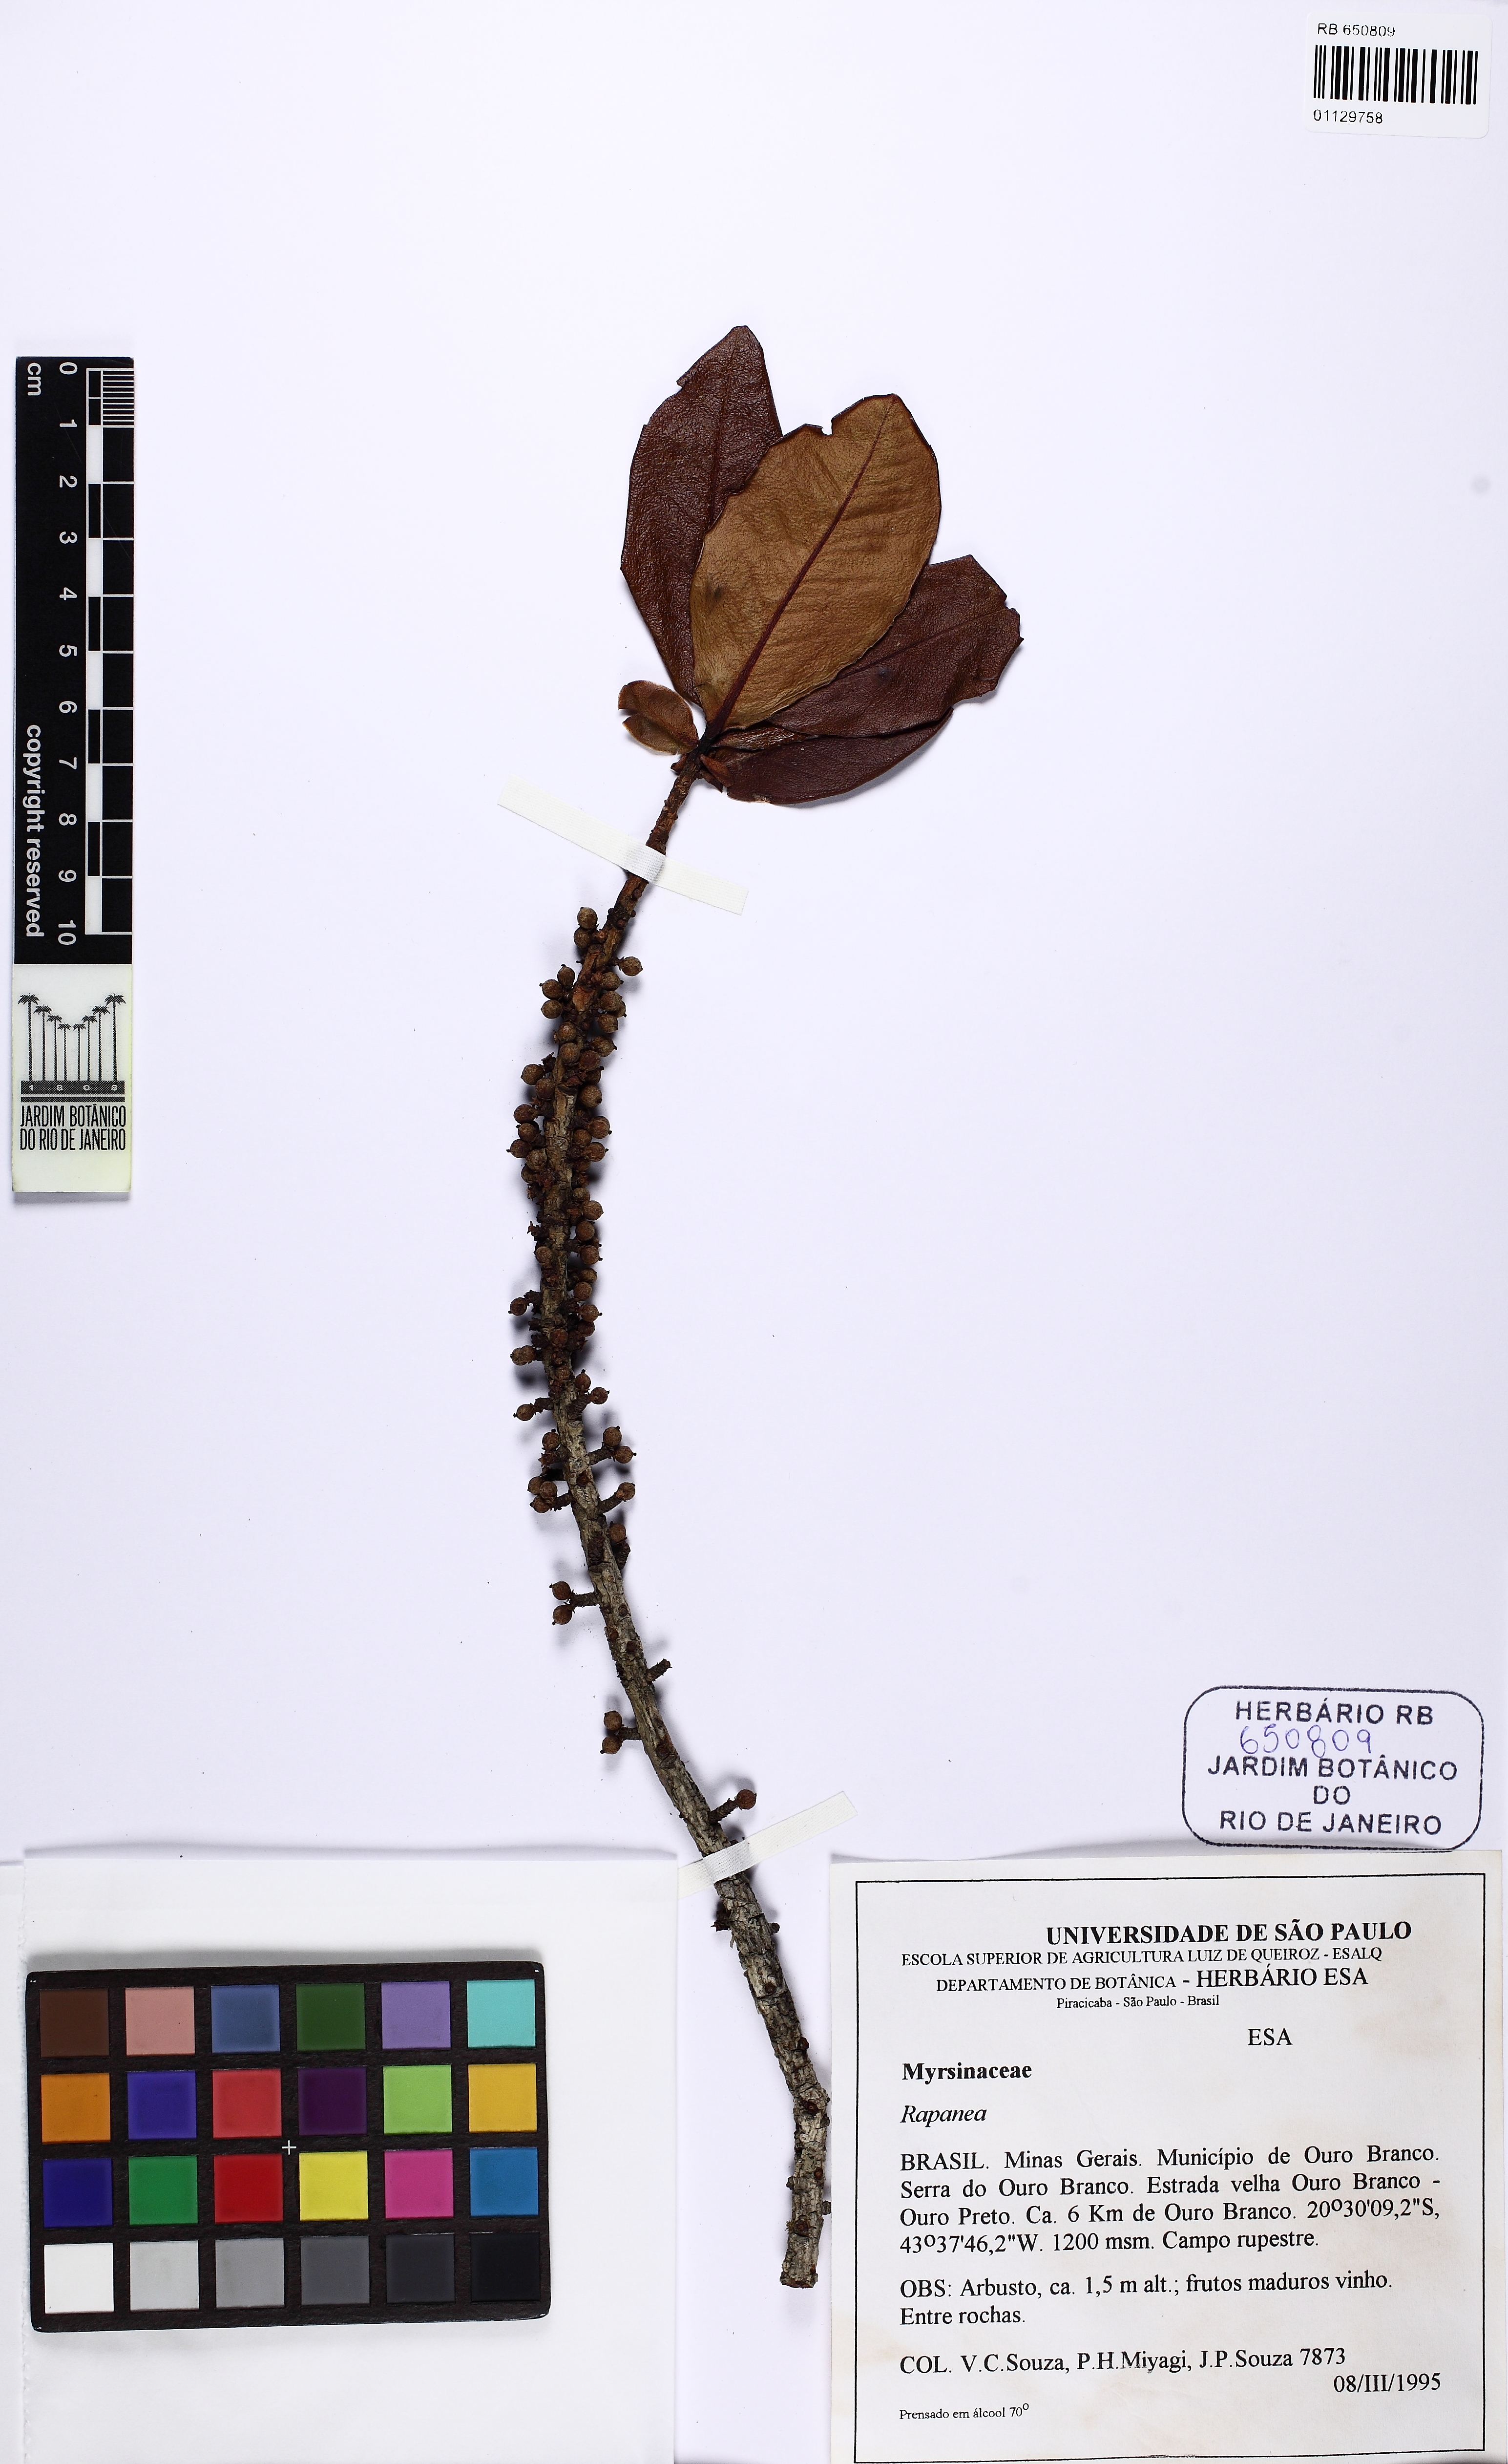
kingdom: Plantae
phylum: Tracheophyta
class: Magnoliopsida
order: Ericales
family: Primulaceae
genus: Myrsine
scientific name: Myrsine monticola
